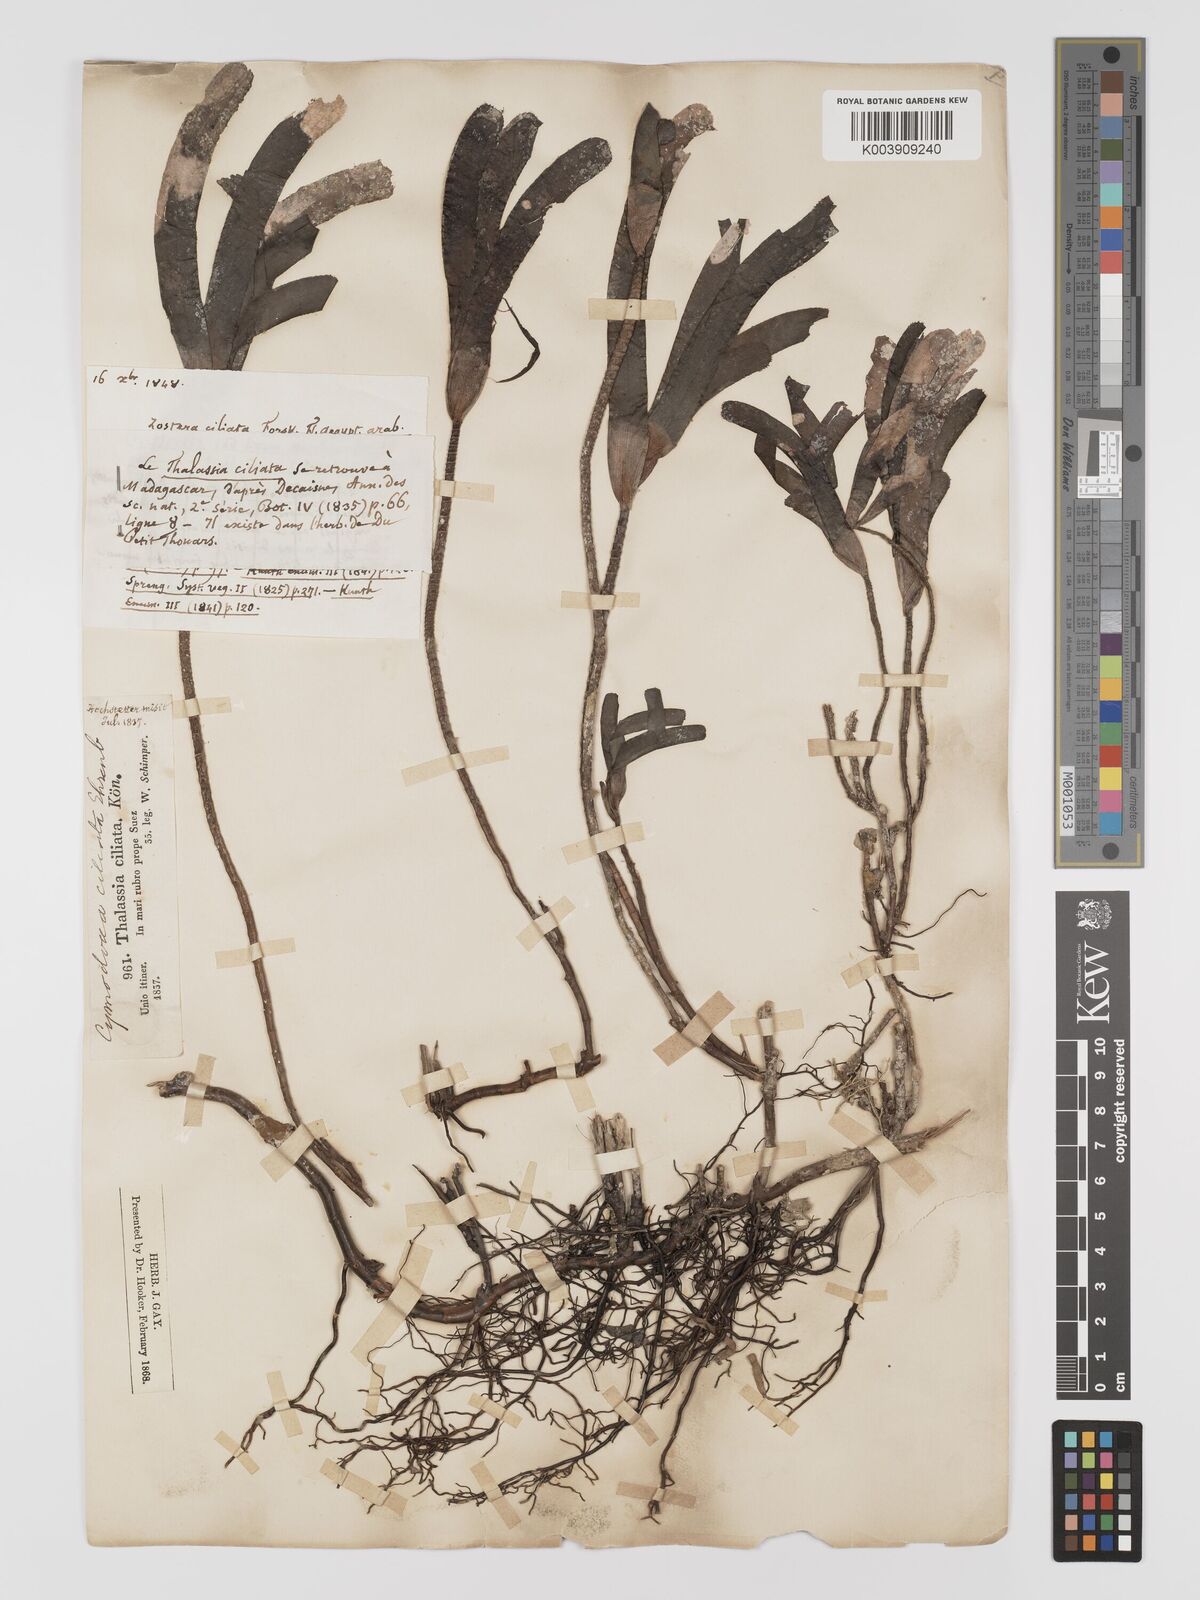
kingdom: Plantae
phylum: Tracheophyta
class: Liliopsida
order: Alismatales
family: Cymodoceaceae
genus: Thalassodendron
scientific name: Thalassodendron ciliatum
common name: Species code: tc
